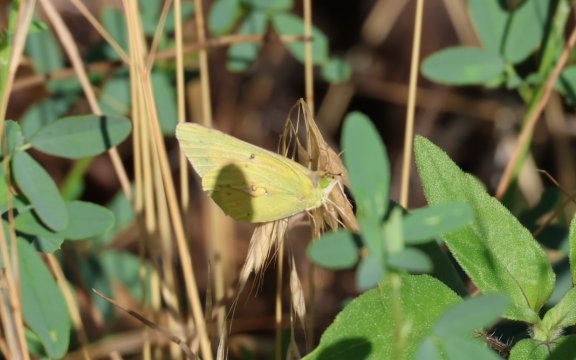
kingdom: Animalia
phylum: Arthropoda
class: Insecta
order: Lepidoptera
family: Pieridae
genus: Zerene
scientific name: Zerene cesonia
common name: Southern Dogface
